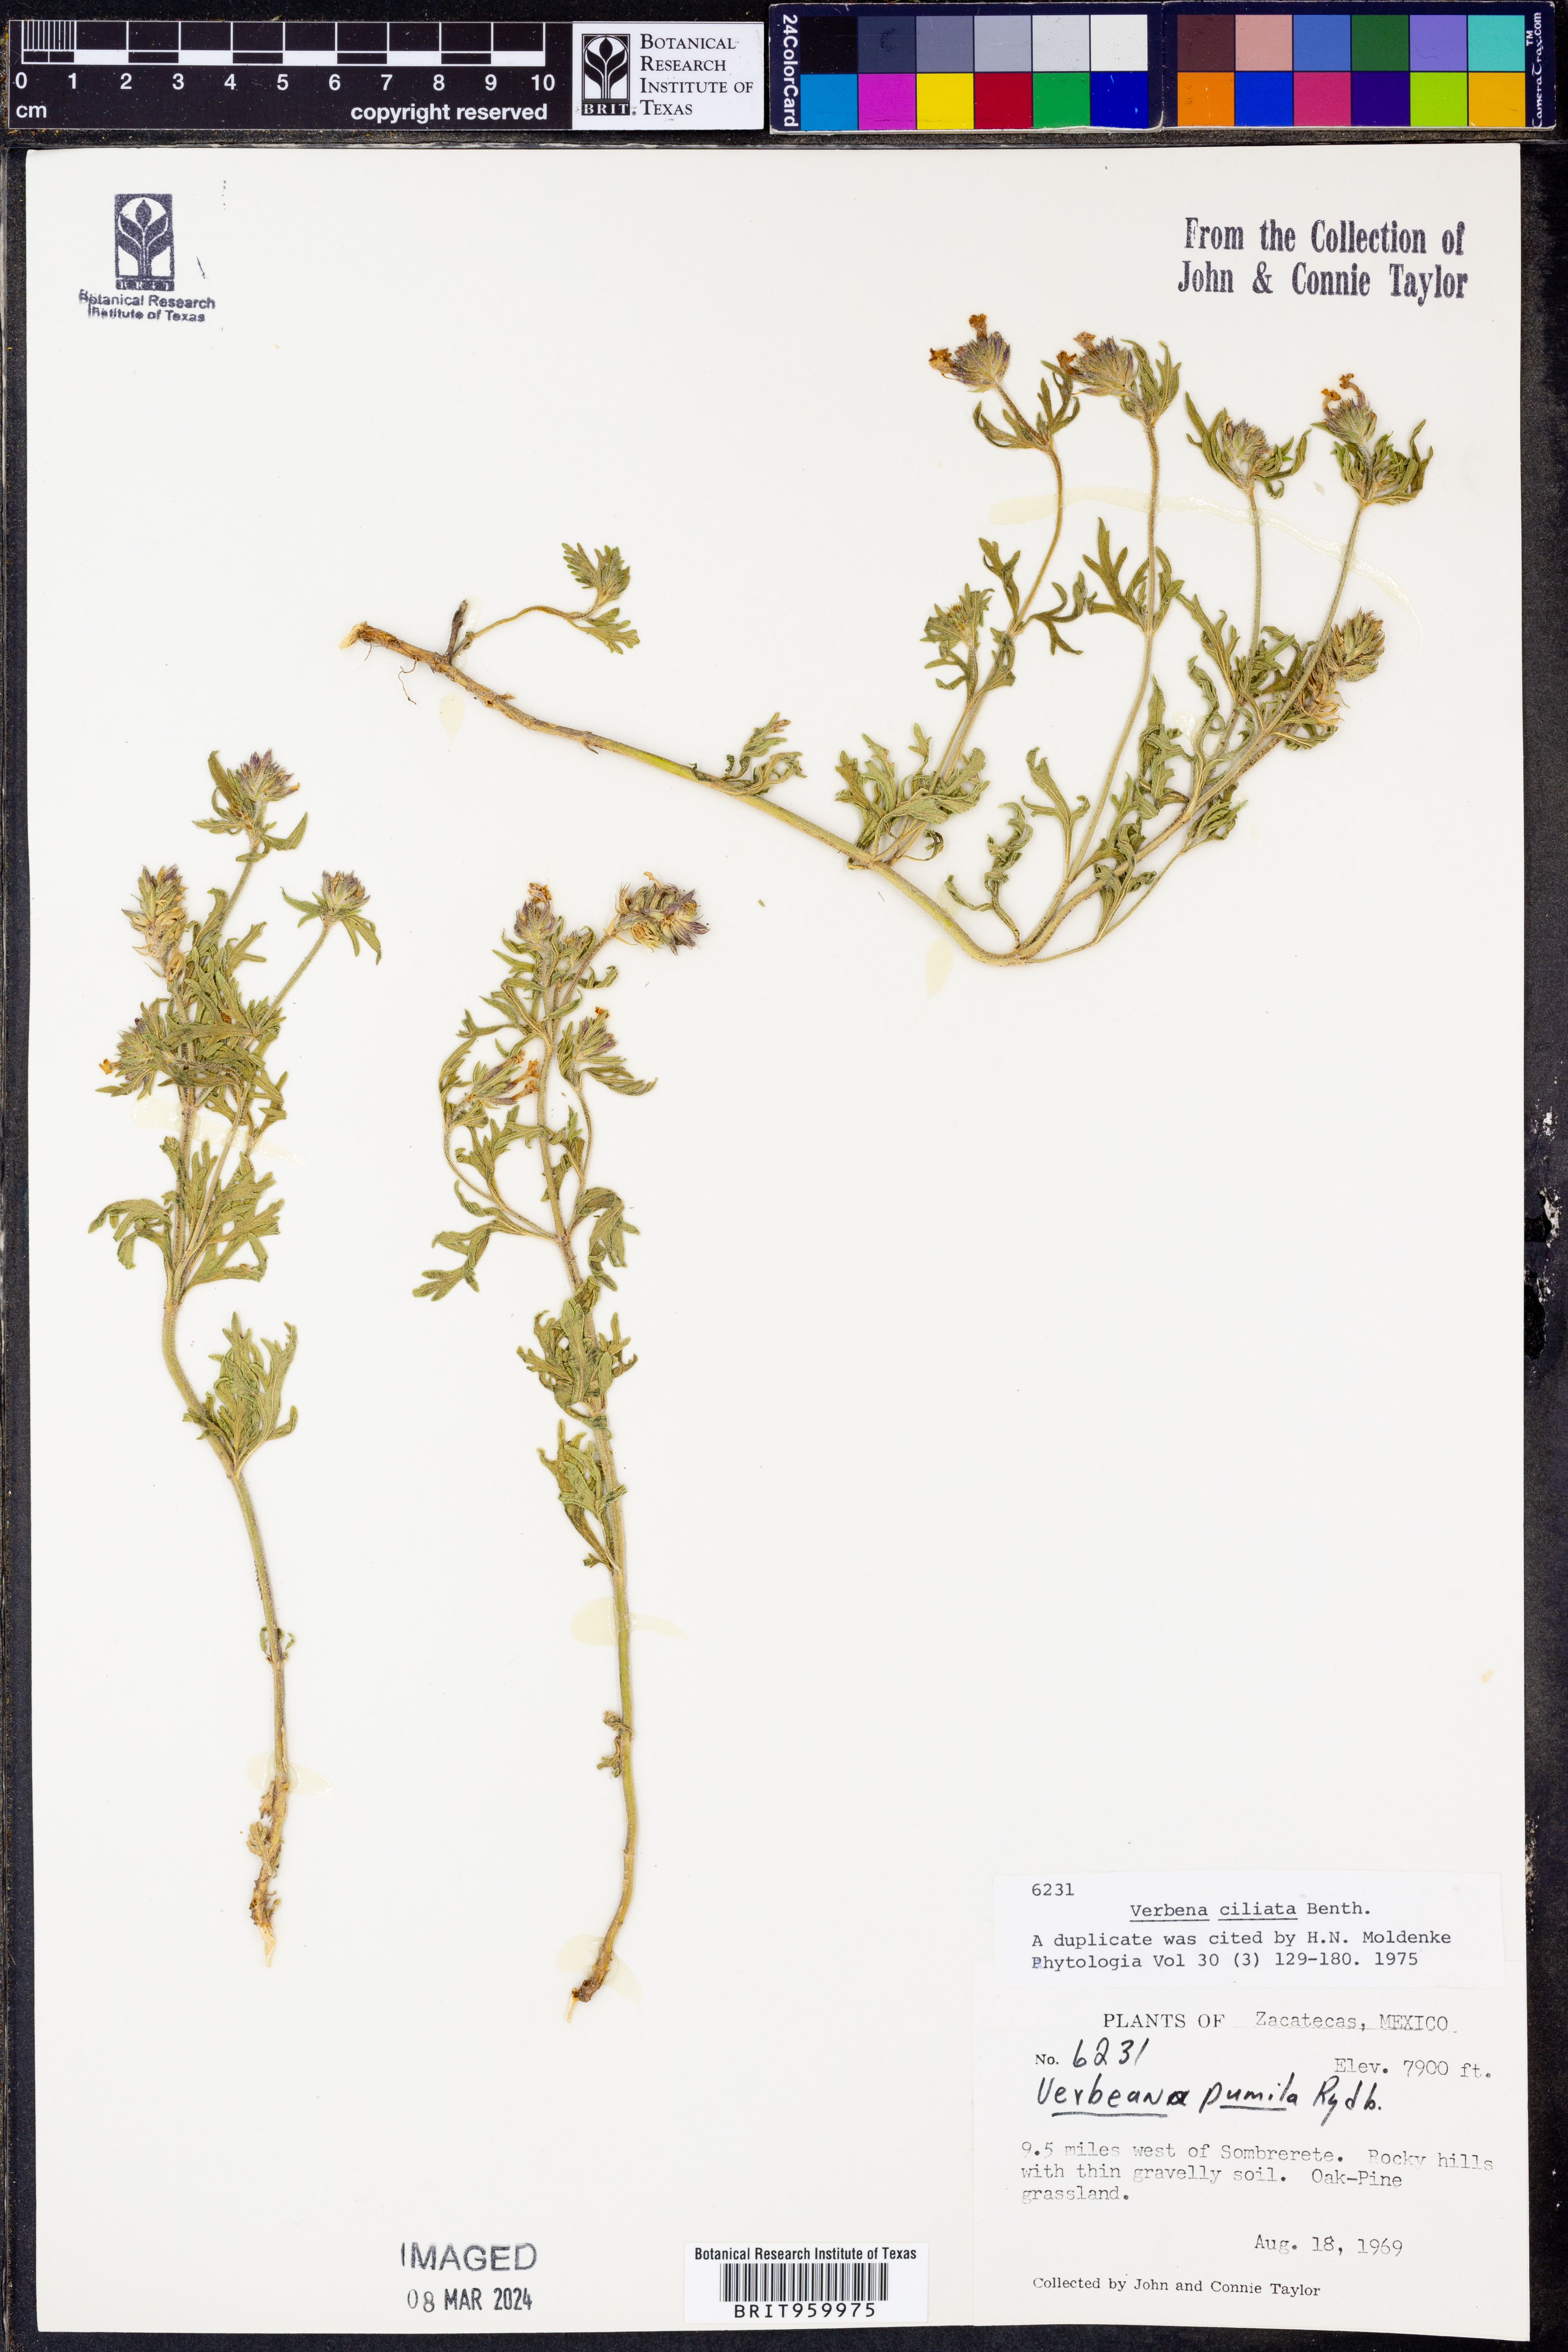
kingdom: Plantae
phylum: Tracheophyta
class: Magnoliopsida
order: Lamiales
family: Verbenaceae
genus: Verbena
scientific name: Verbena
